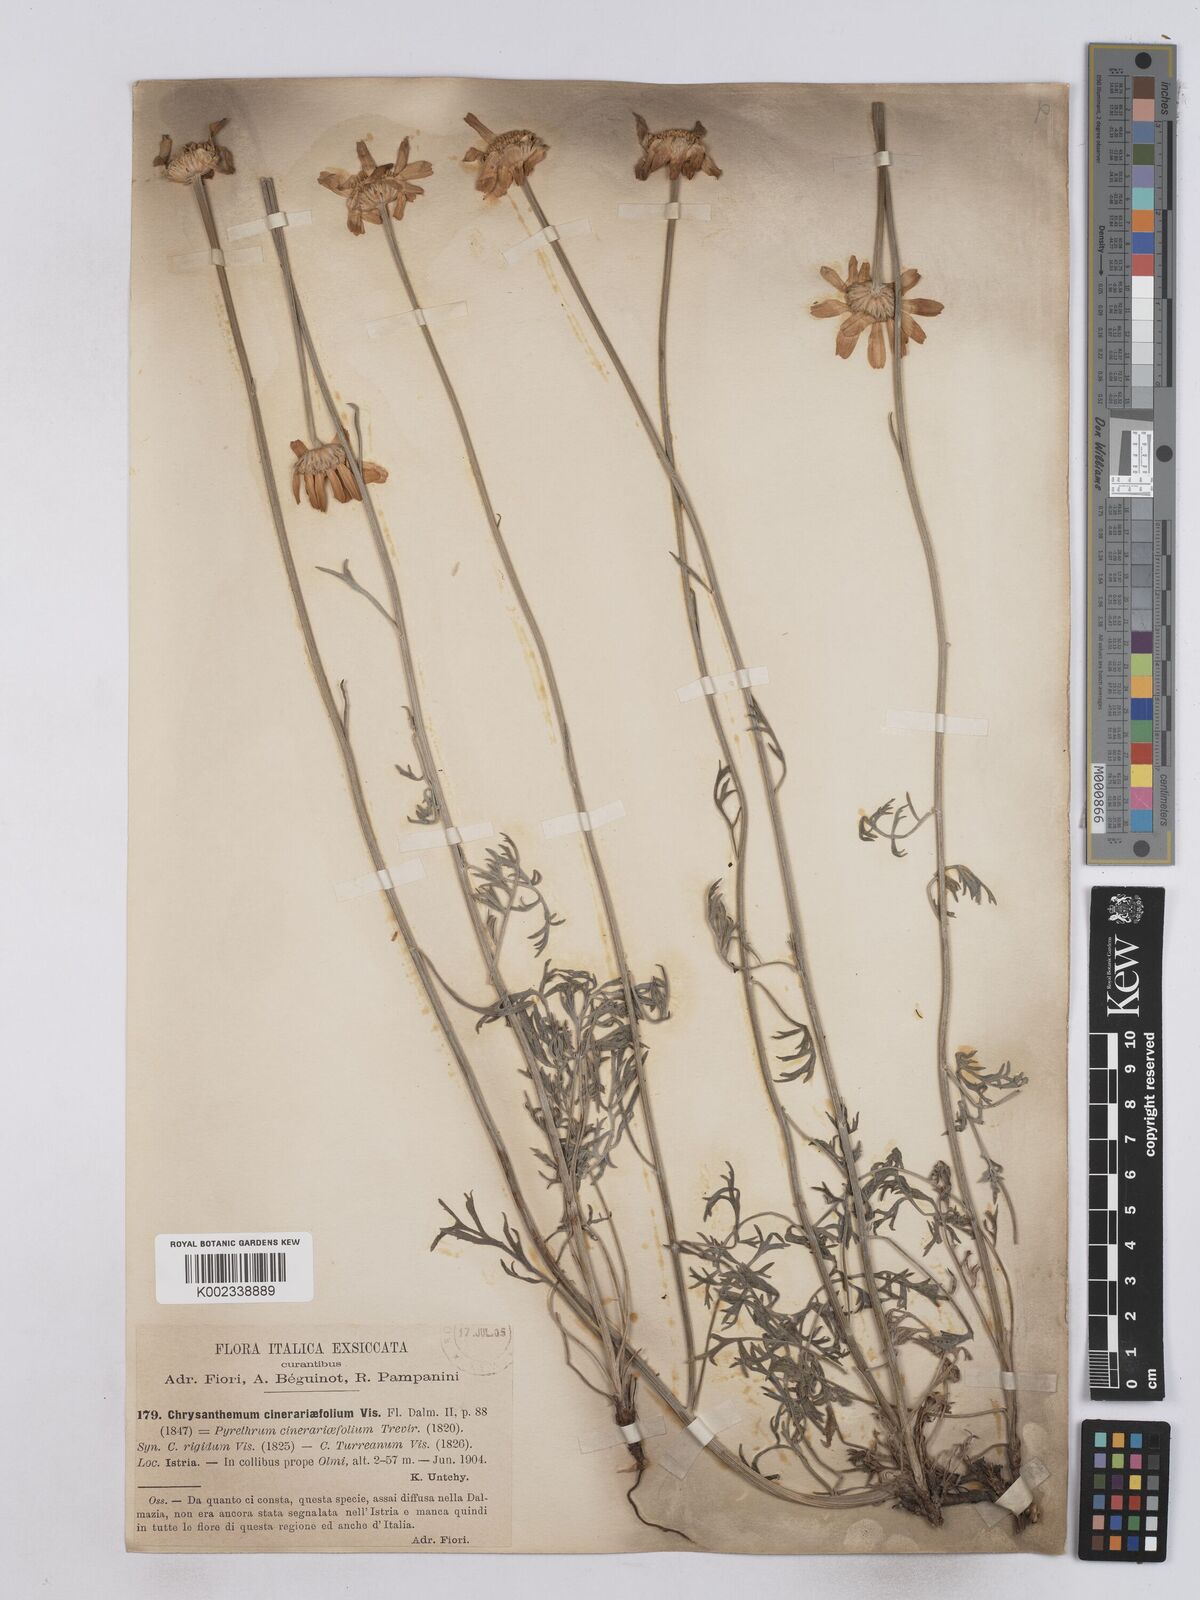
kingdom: Plantae
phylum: Tracheophyta
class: Magnoliopsida
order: Asterales
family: Asteraceae
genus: Tanacetum
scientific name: Tanacetum cinerariifolium
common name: Dalmatian pyrethrum
